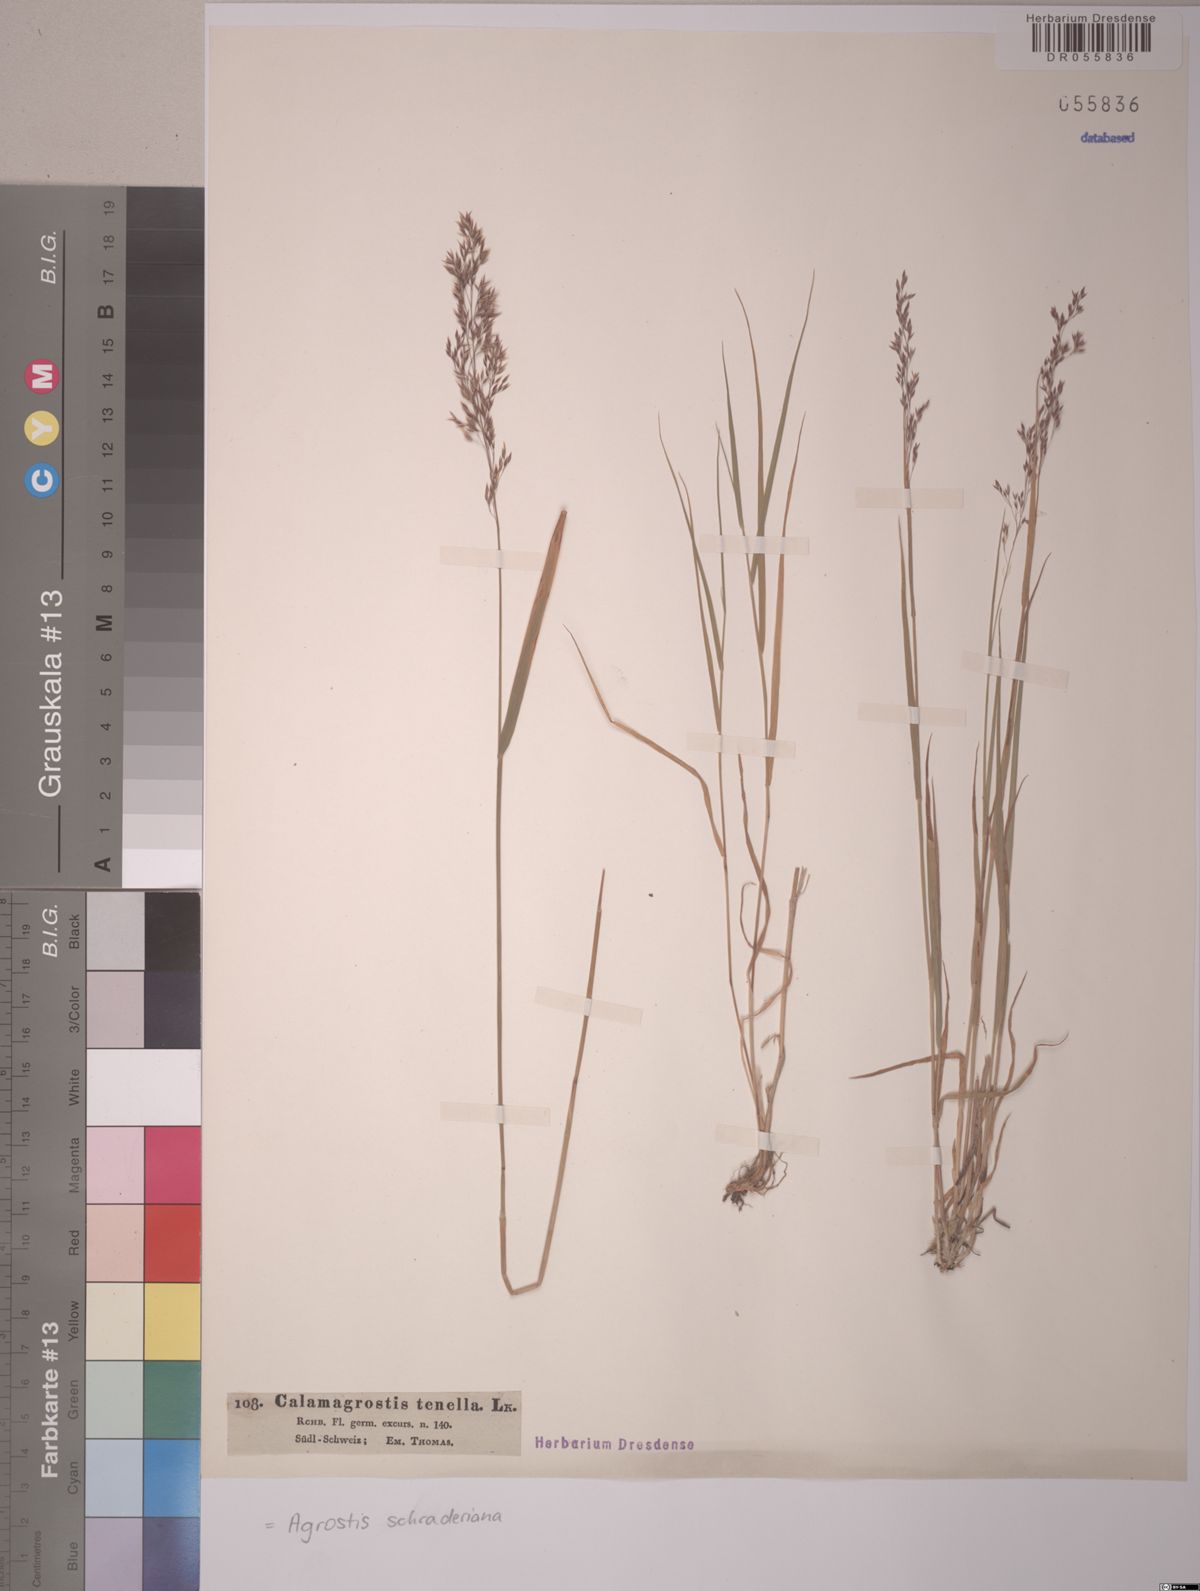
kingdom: Plantae
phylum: Tracheophyta
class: Liliopsida
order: Poales
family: Poaceae
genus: Agrostis
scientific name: Agrostis schraderiana
